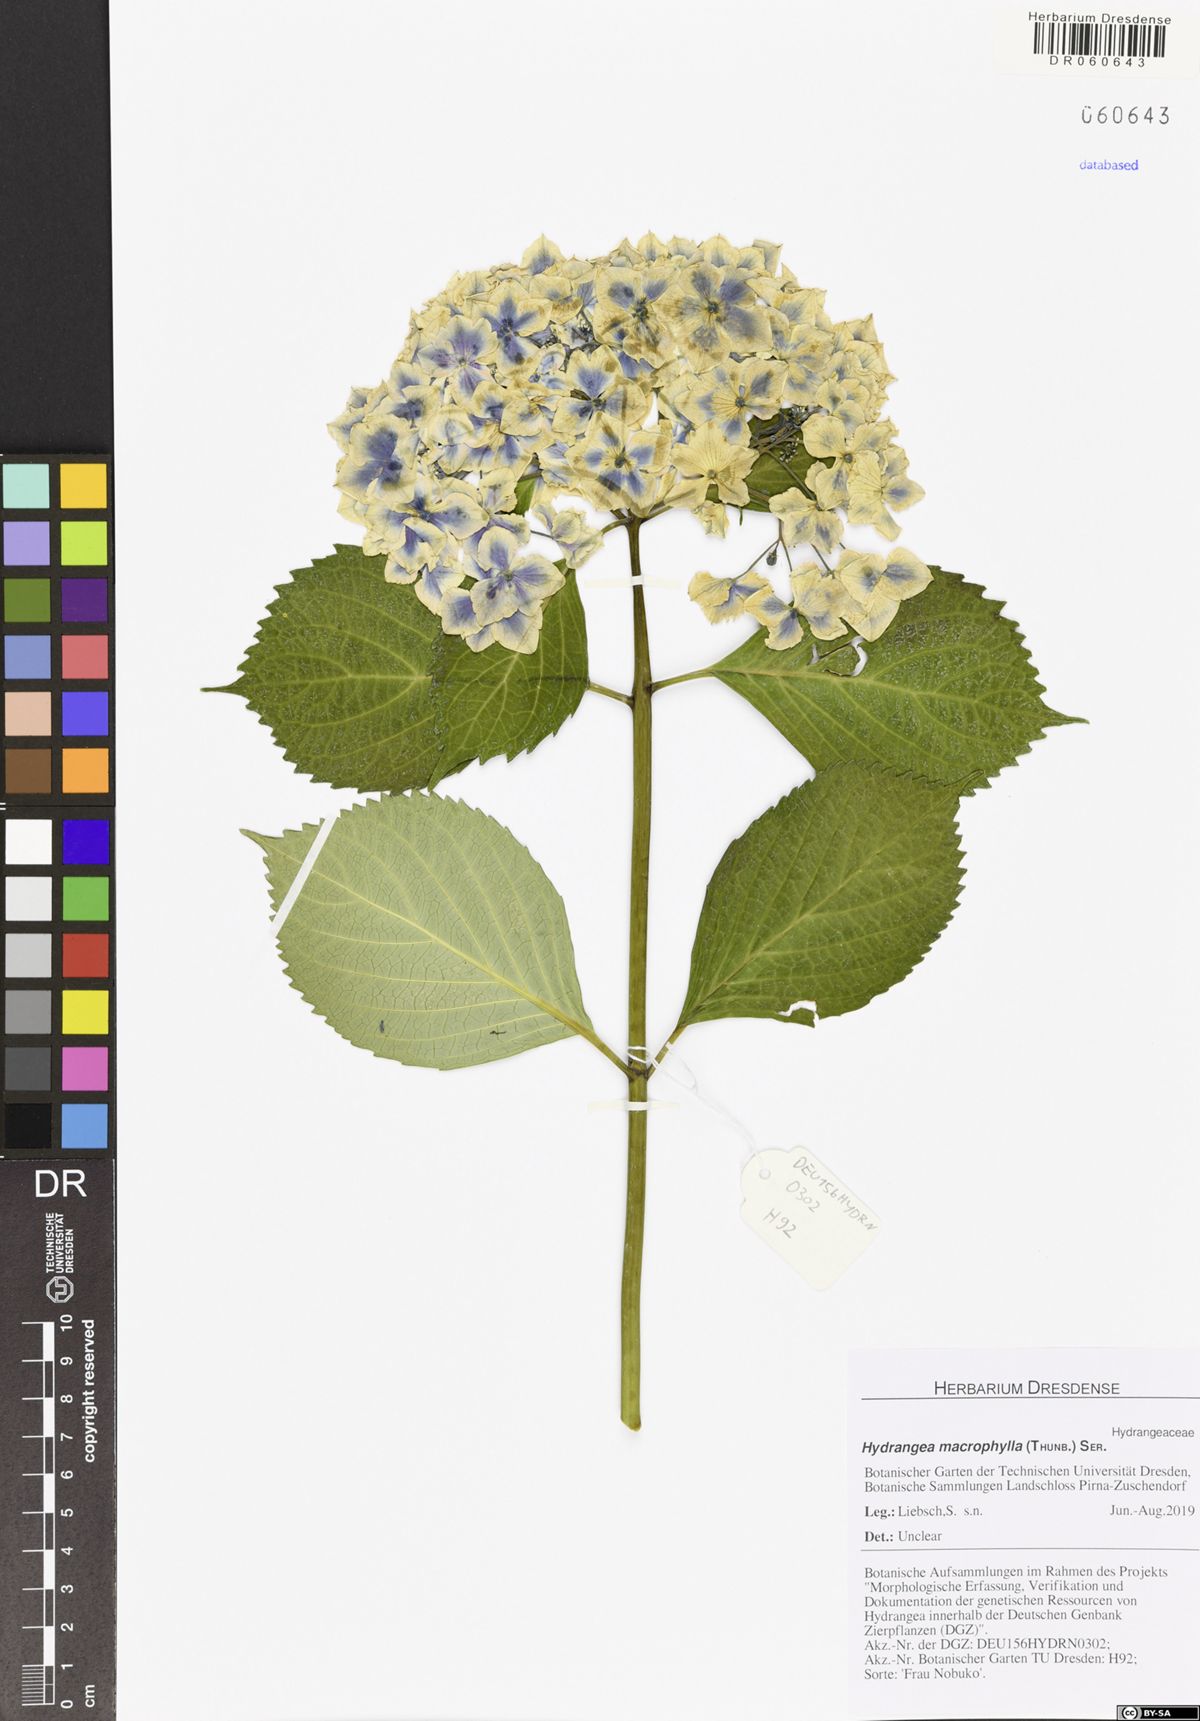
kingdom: Plantae
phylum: Tracheophyta
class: Magnoliopsida
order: Cornales
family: Hydrangeaceae
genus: Hydrangea
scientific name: Hydrangea macrophylla
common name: Hydrangea
